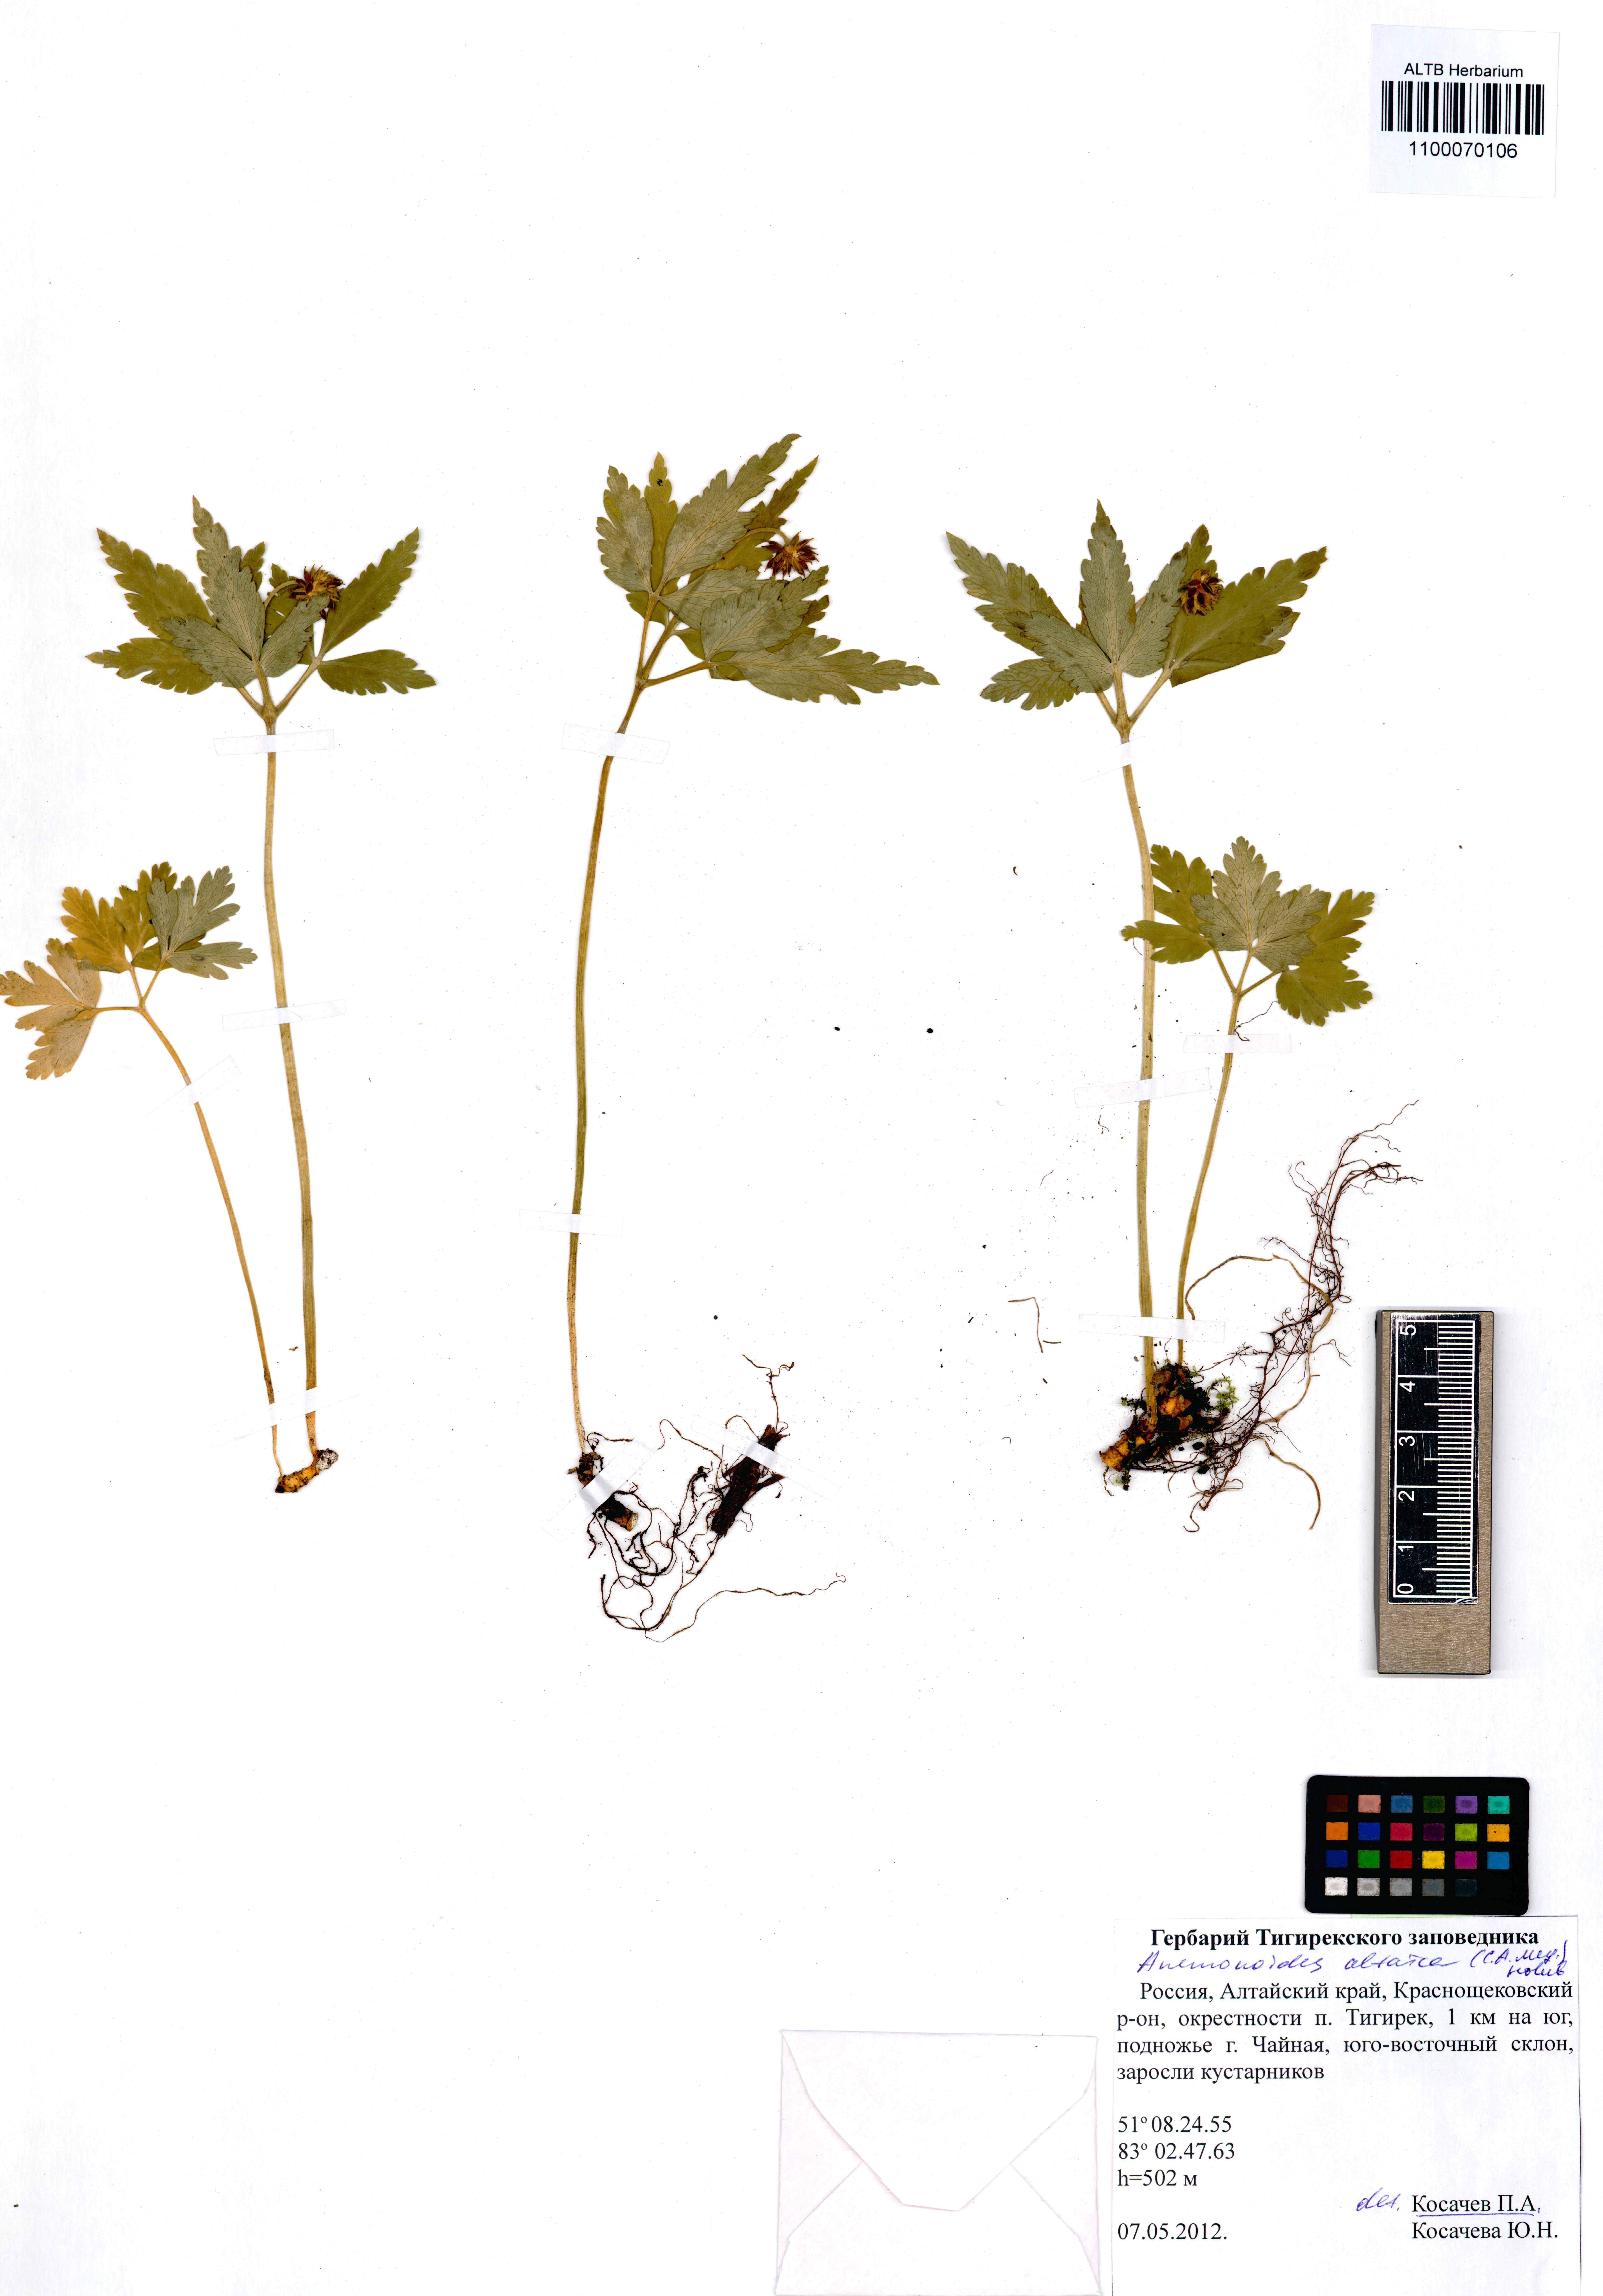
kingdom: Plantae
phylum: Tracheophyta
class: Magnoliopsida
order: Ranunculales
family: Ranunculaceae
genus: Anemone
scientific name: Anemone altaica
